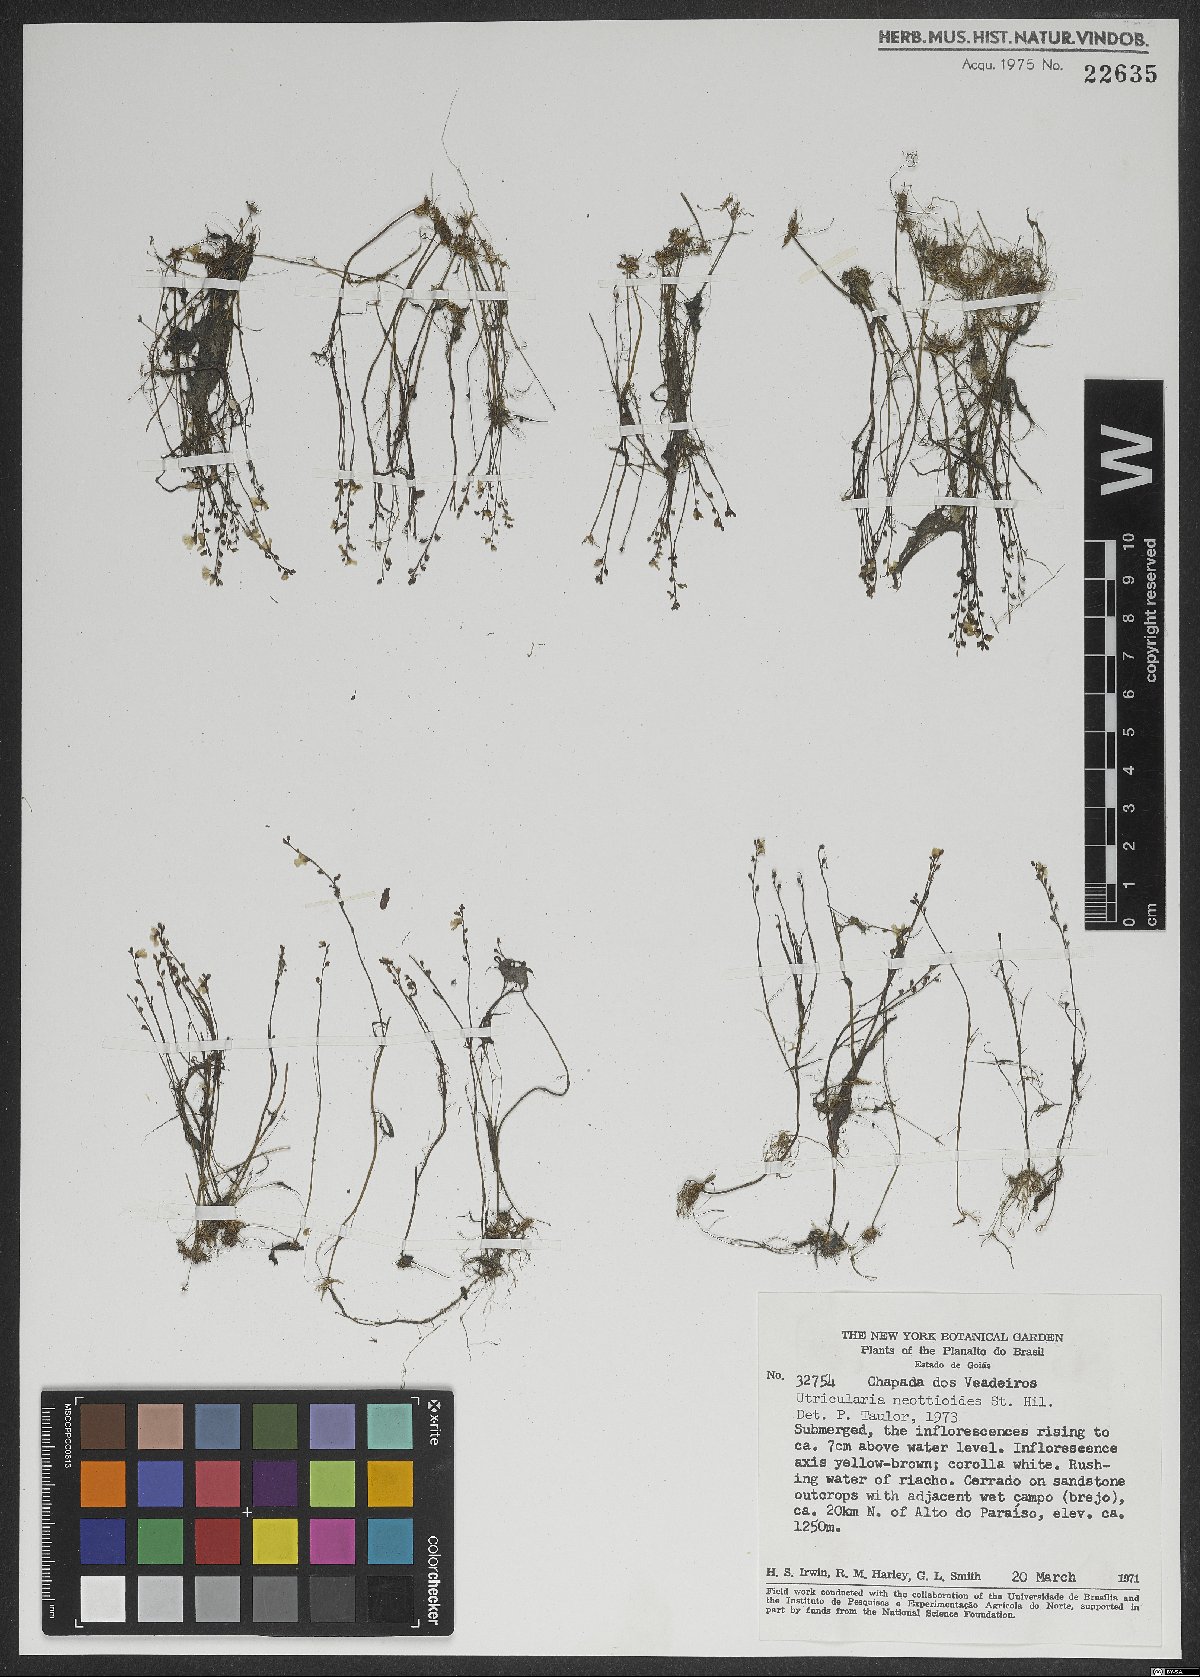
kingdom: Plantae
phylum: Tracheophyta
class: Magnoliopsida
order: Lamiales
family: Lentibulariaceae
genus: Utricularia
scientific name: Utricularia neottioides
